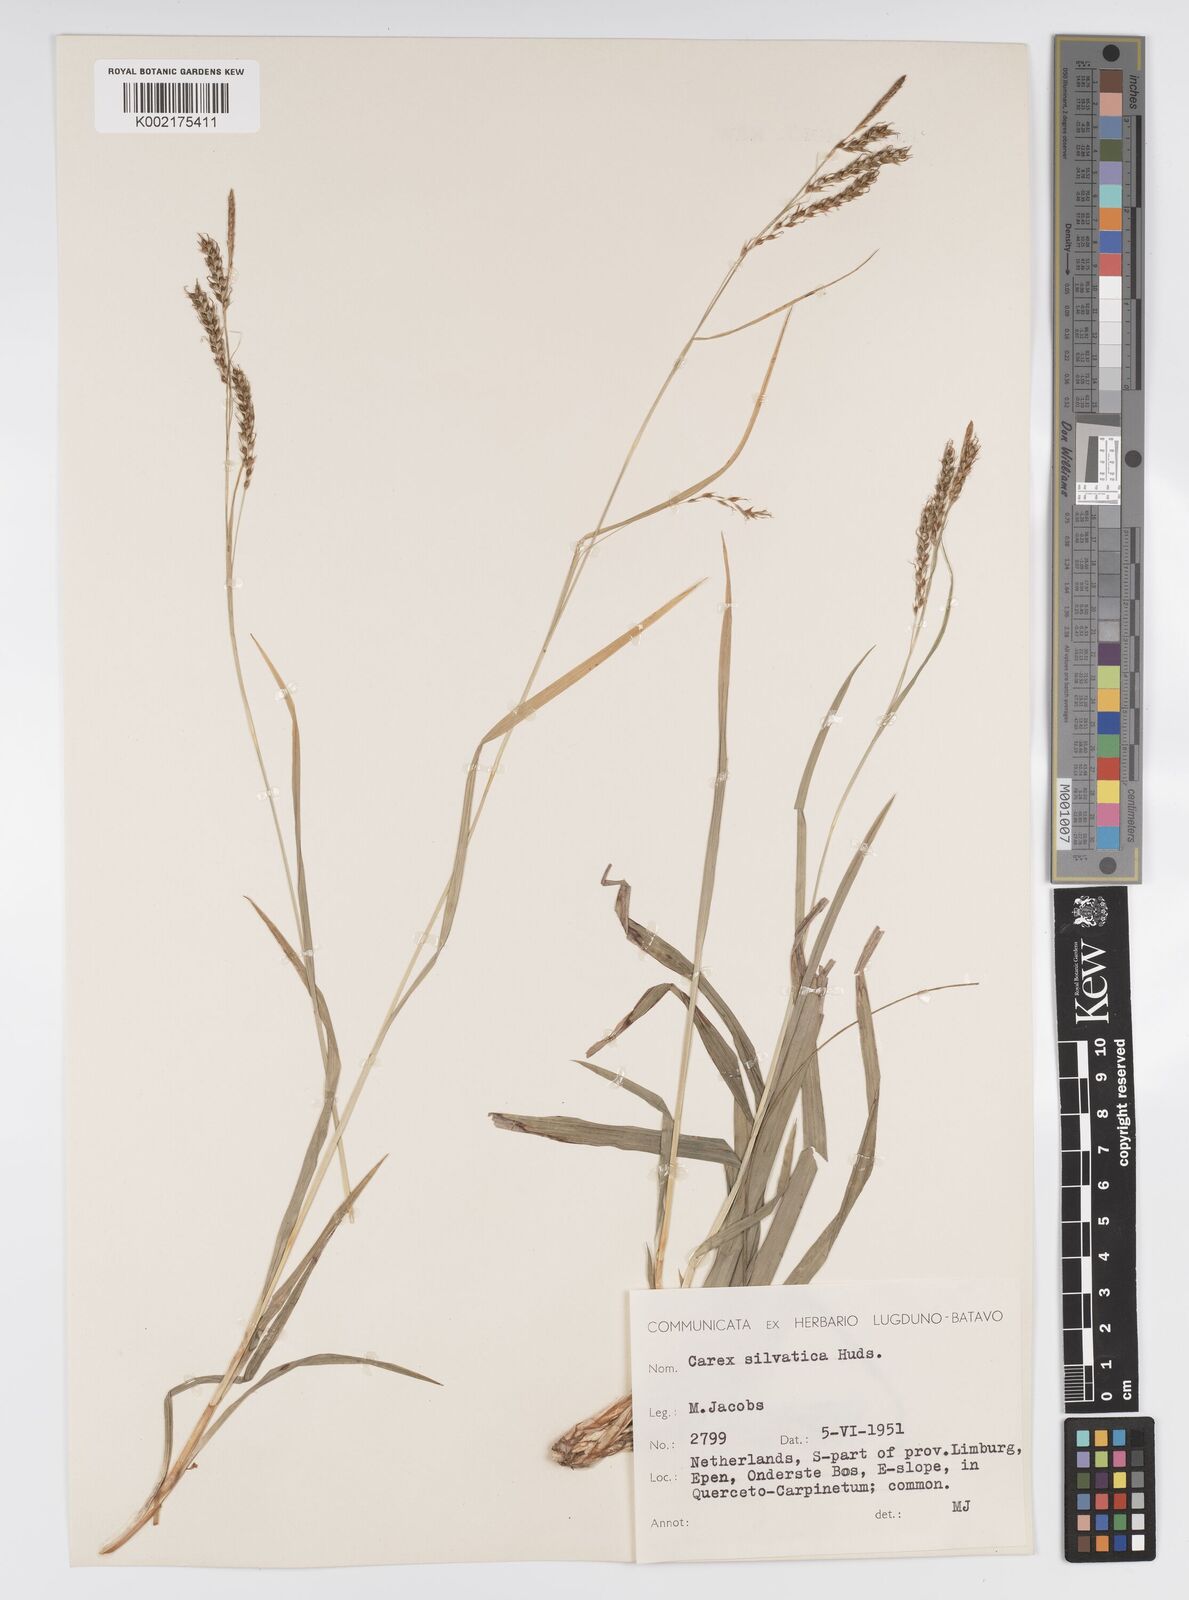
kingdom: Plantae
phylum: Tracheophyta
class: Liliopsida
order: Poales
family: Cyperaceae
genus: Carex
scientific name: Carex sylvatica
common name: Wood-sedge
